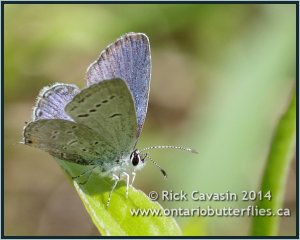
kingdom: Animalia
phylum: Arthropoda
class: Insecta
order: Lepidoptera
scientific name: Lepidoptera
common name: Butterflies
